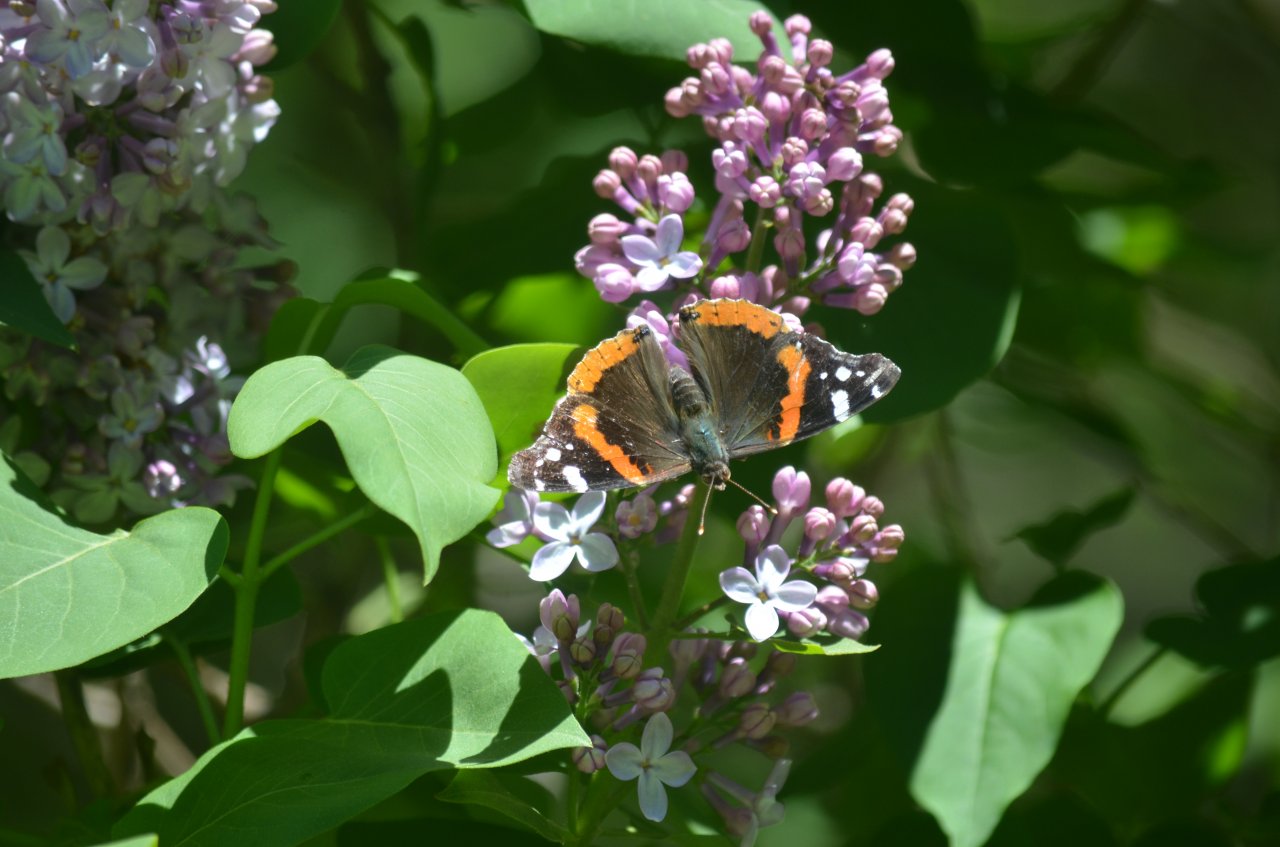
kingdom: Animalia
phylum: Arthropoda
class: Insecta
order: Lepidoptera
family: Nymphalidae
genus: Vanessa
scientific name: Vanessa atalanta
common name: Red Admiral
